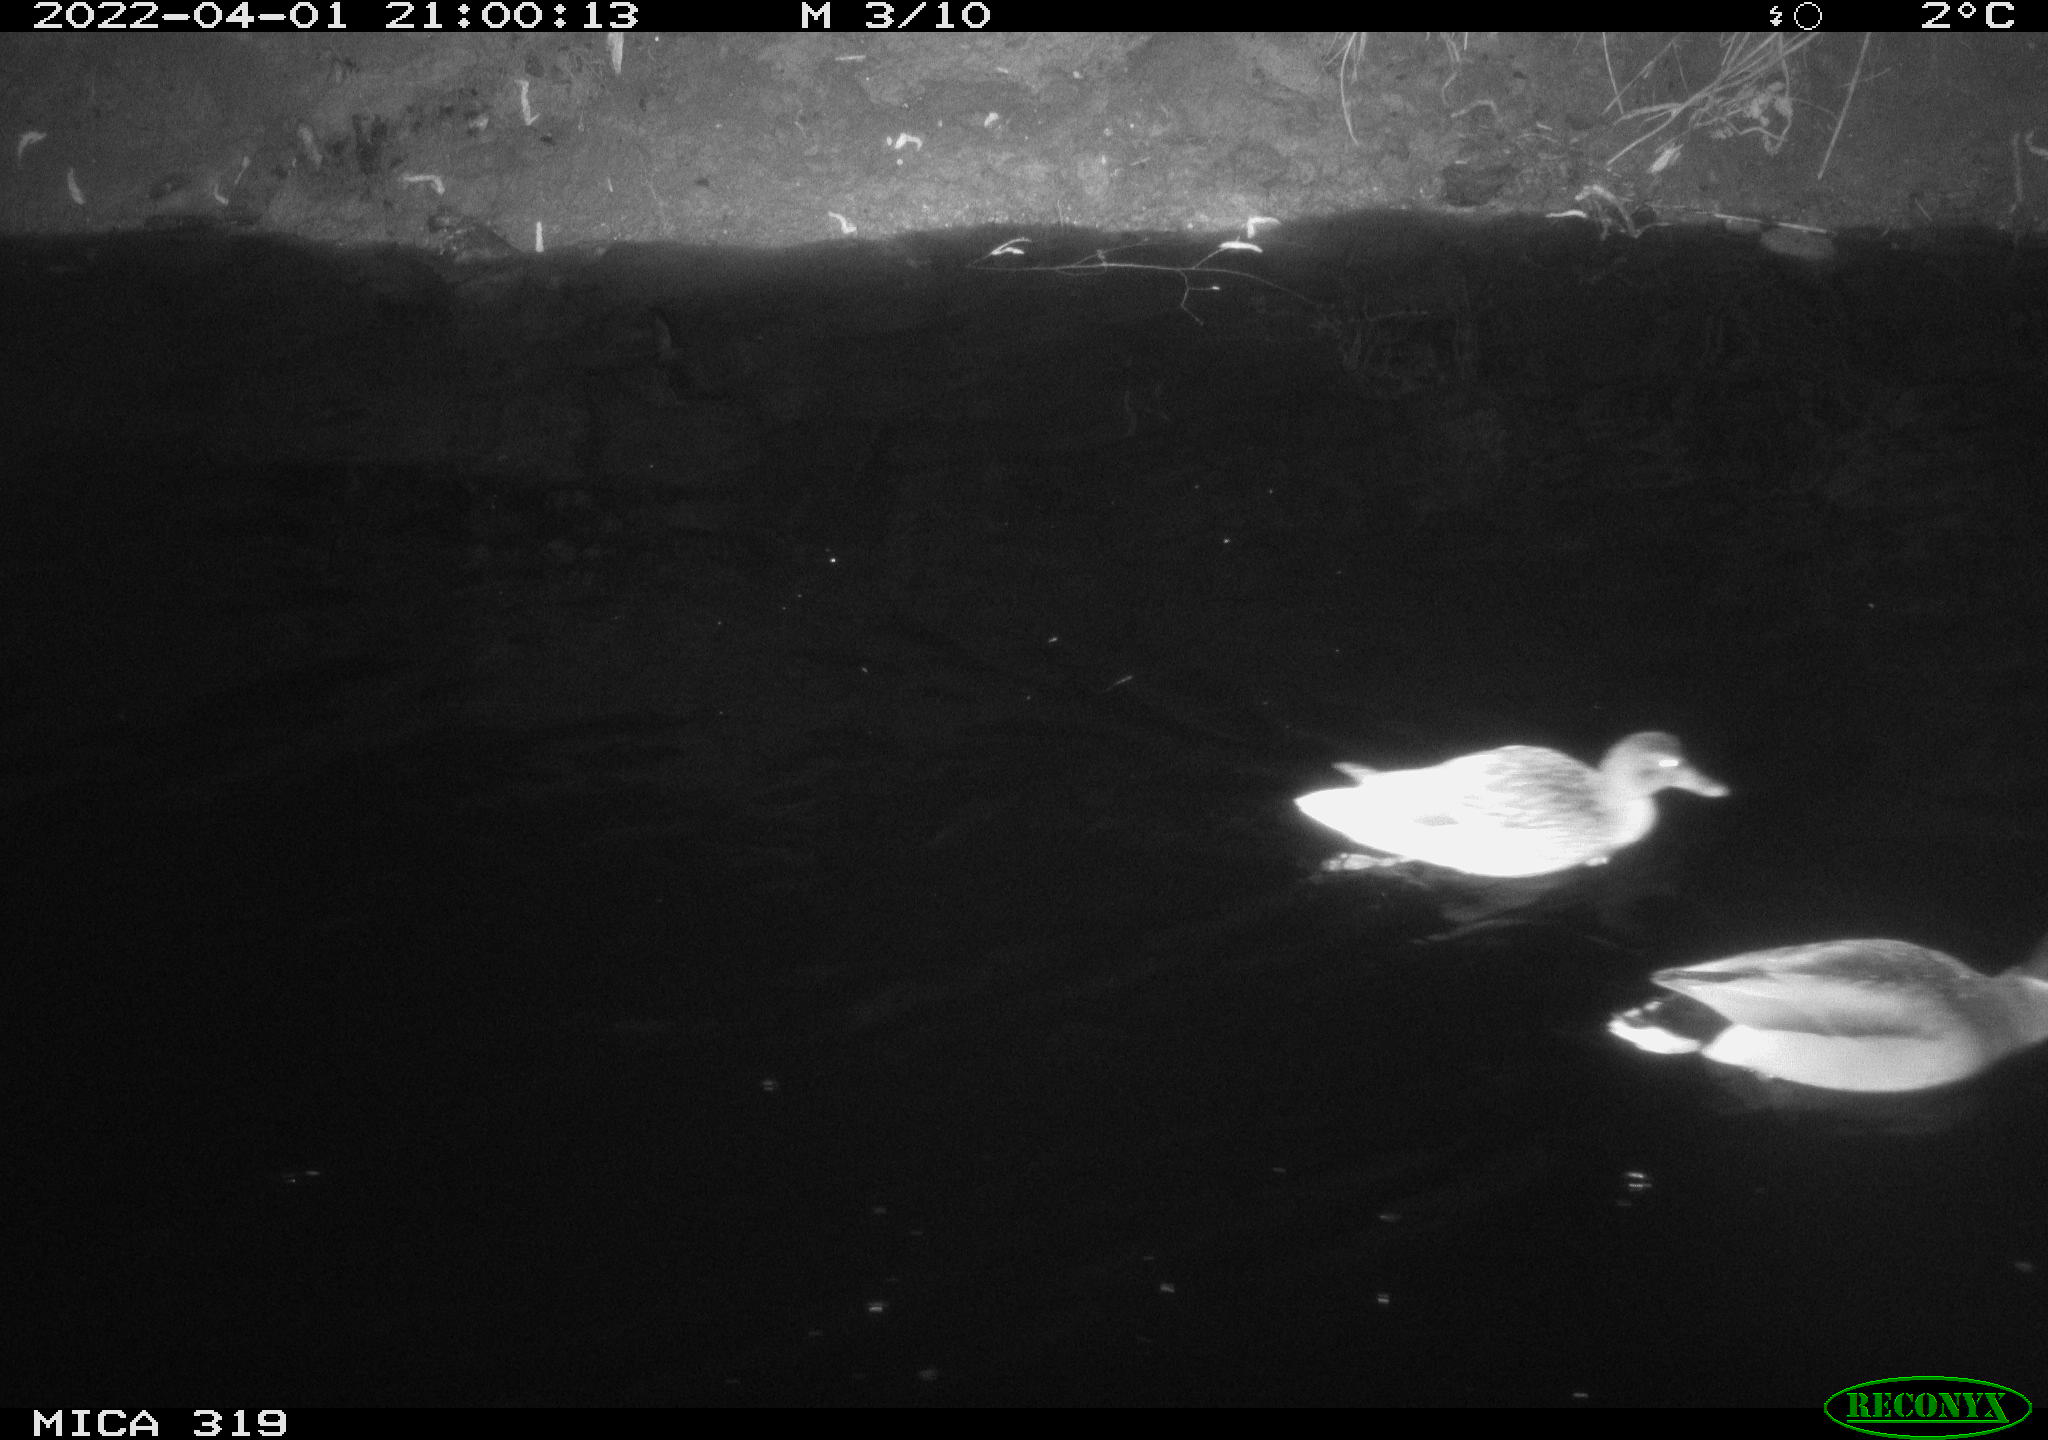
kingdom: Animalia
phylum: Chordata
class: Aves
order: Anseriformes
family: Anatidae
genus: Anas
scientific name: Anas platyrhynchos
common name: Mallard
